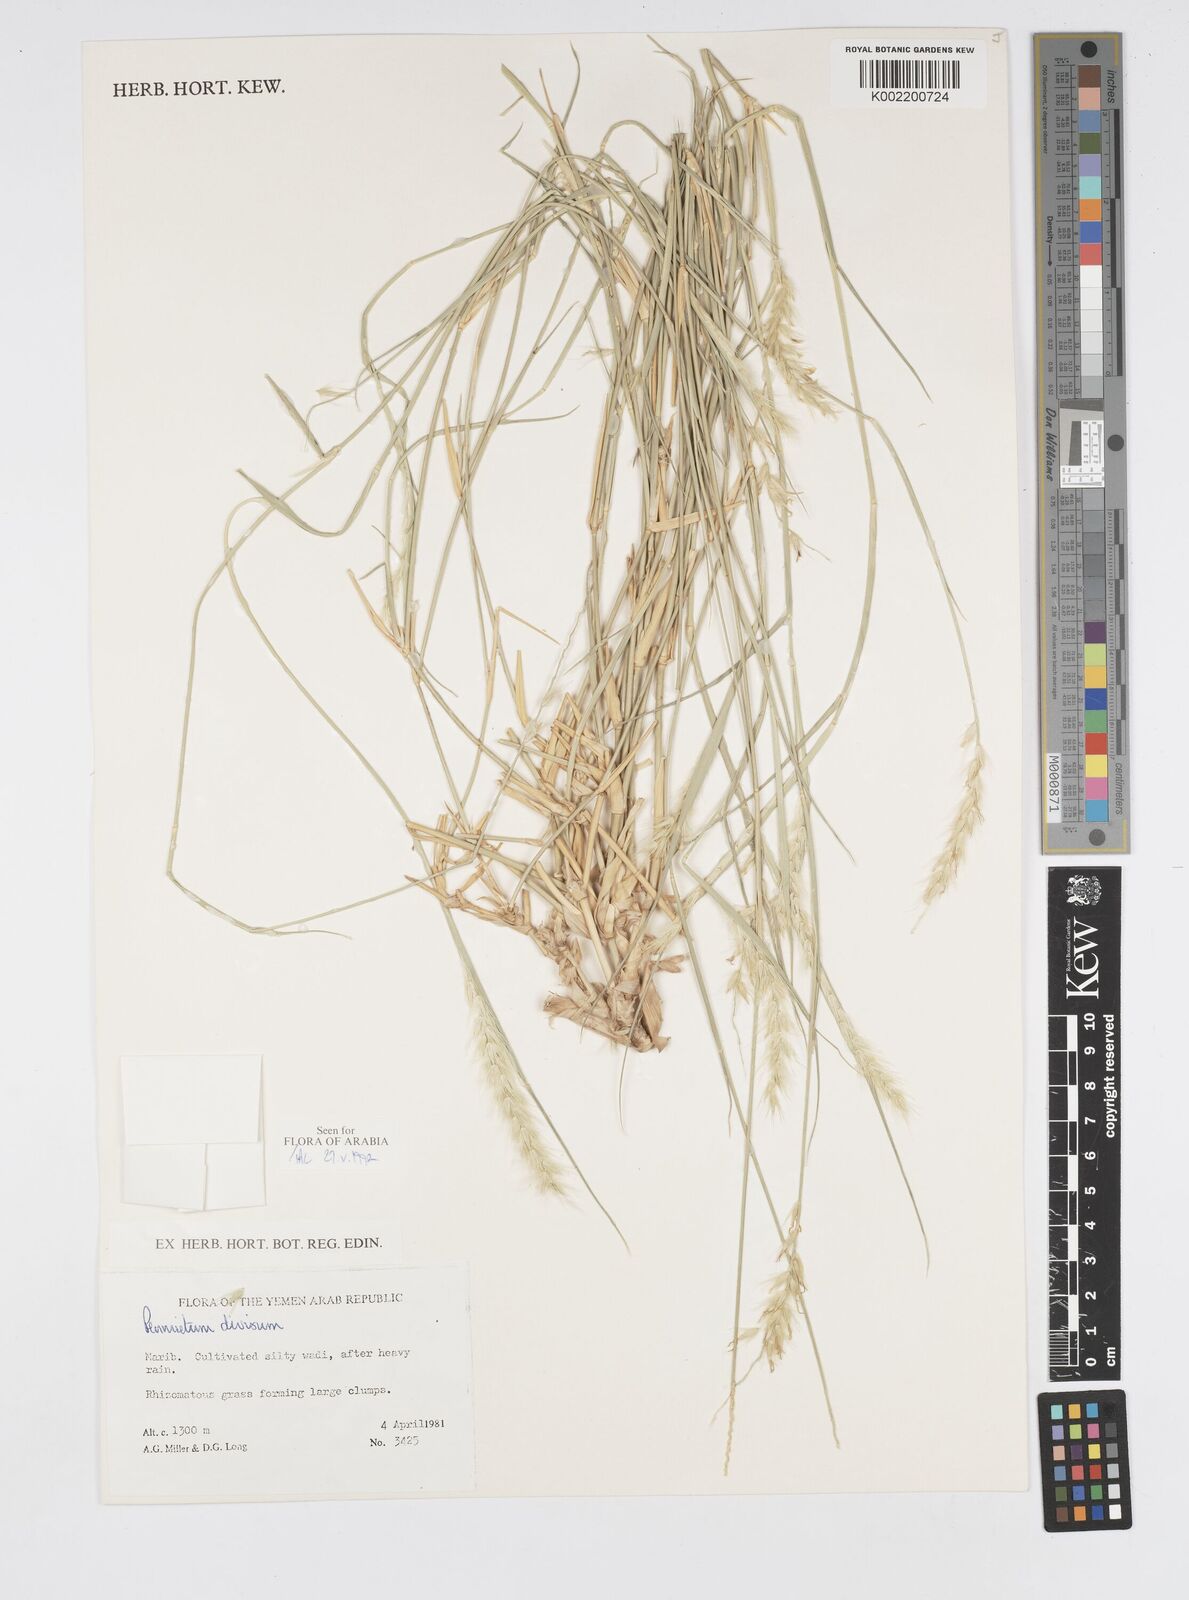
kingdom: Plantae
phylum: Tracheophyta
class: Liliopsida
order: Poales
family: Poaceae
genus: Cenchrus
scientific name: Cenchrus divisus
